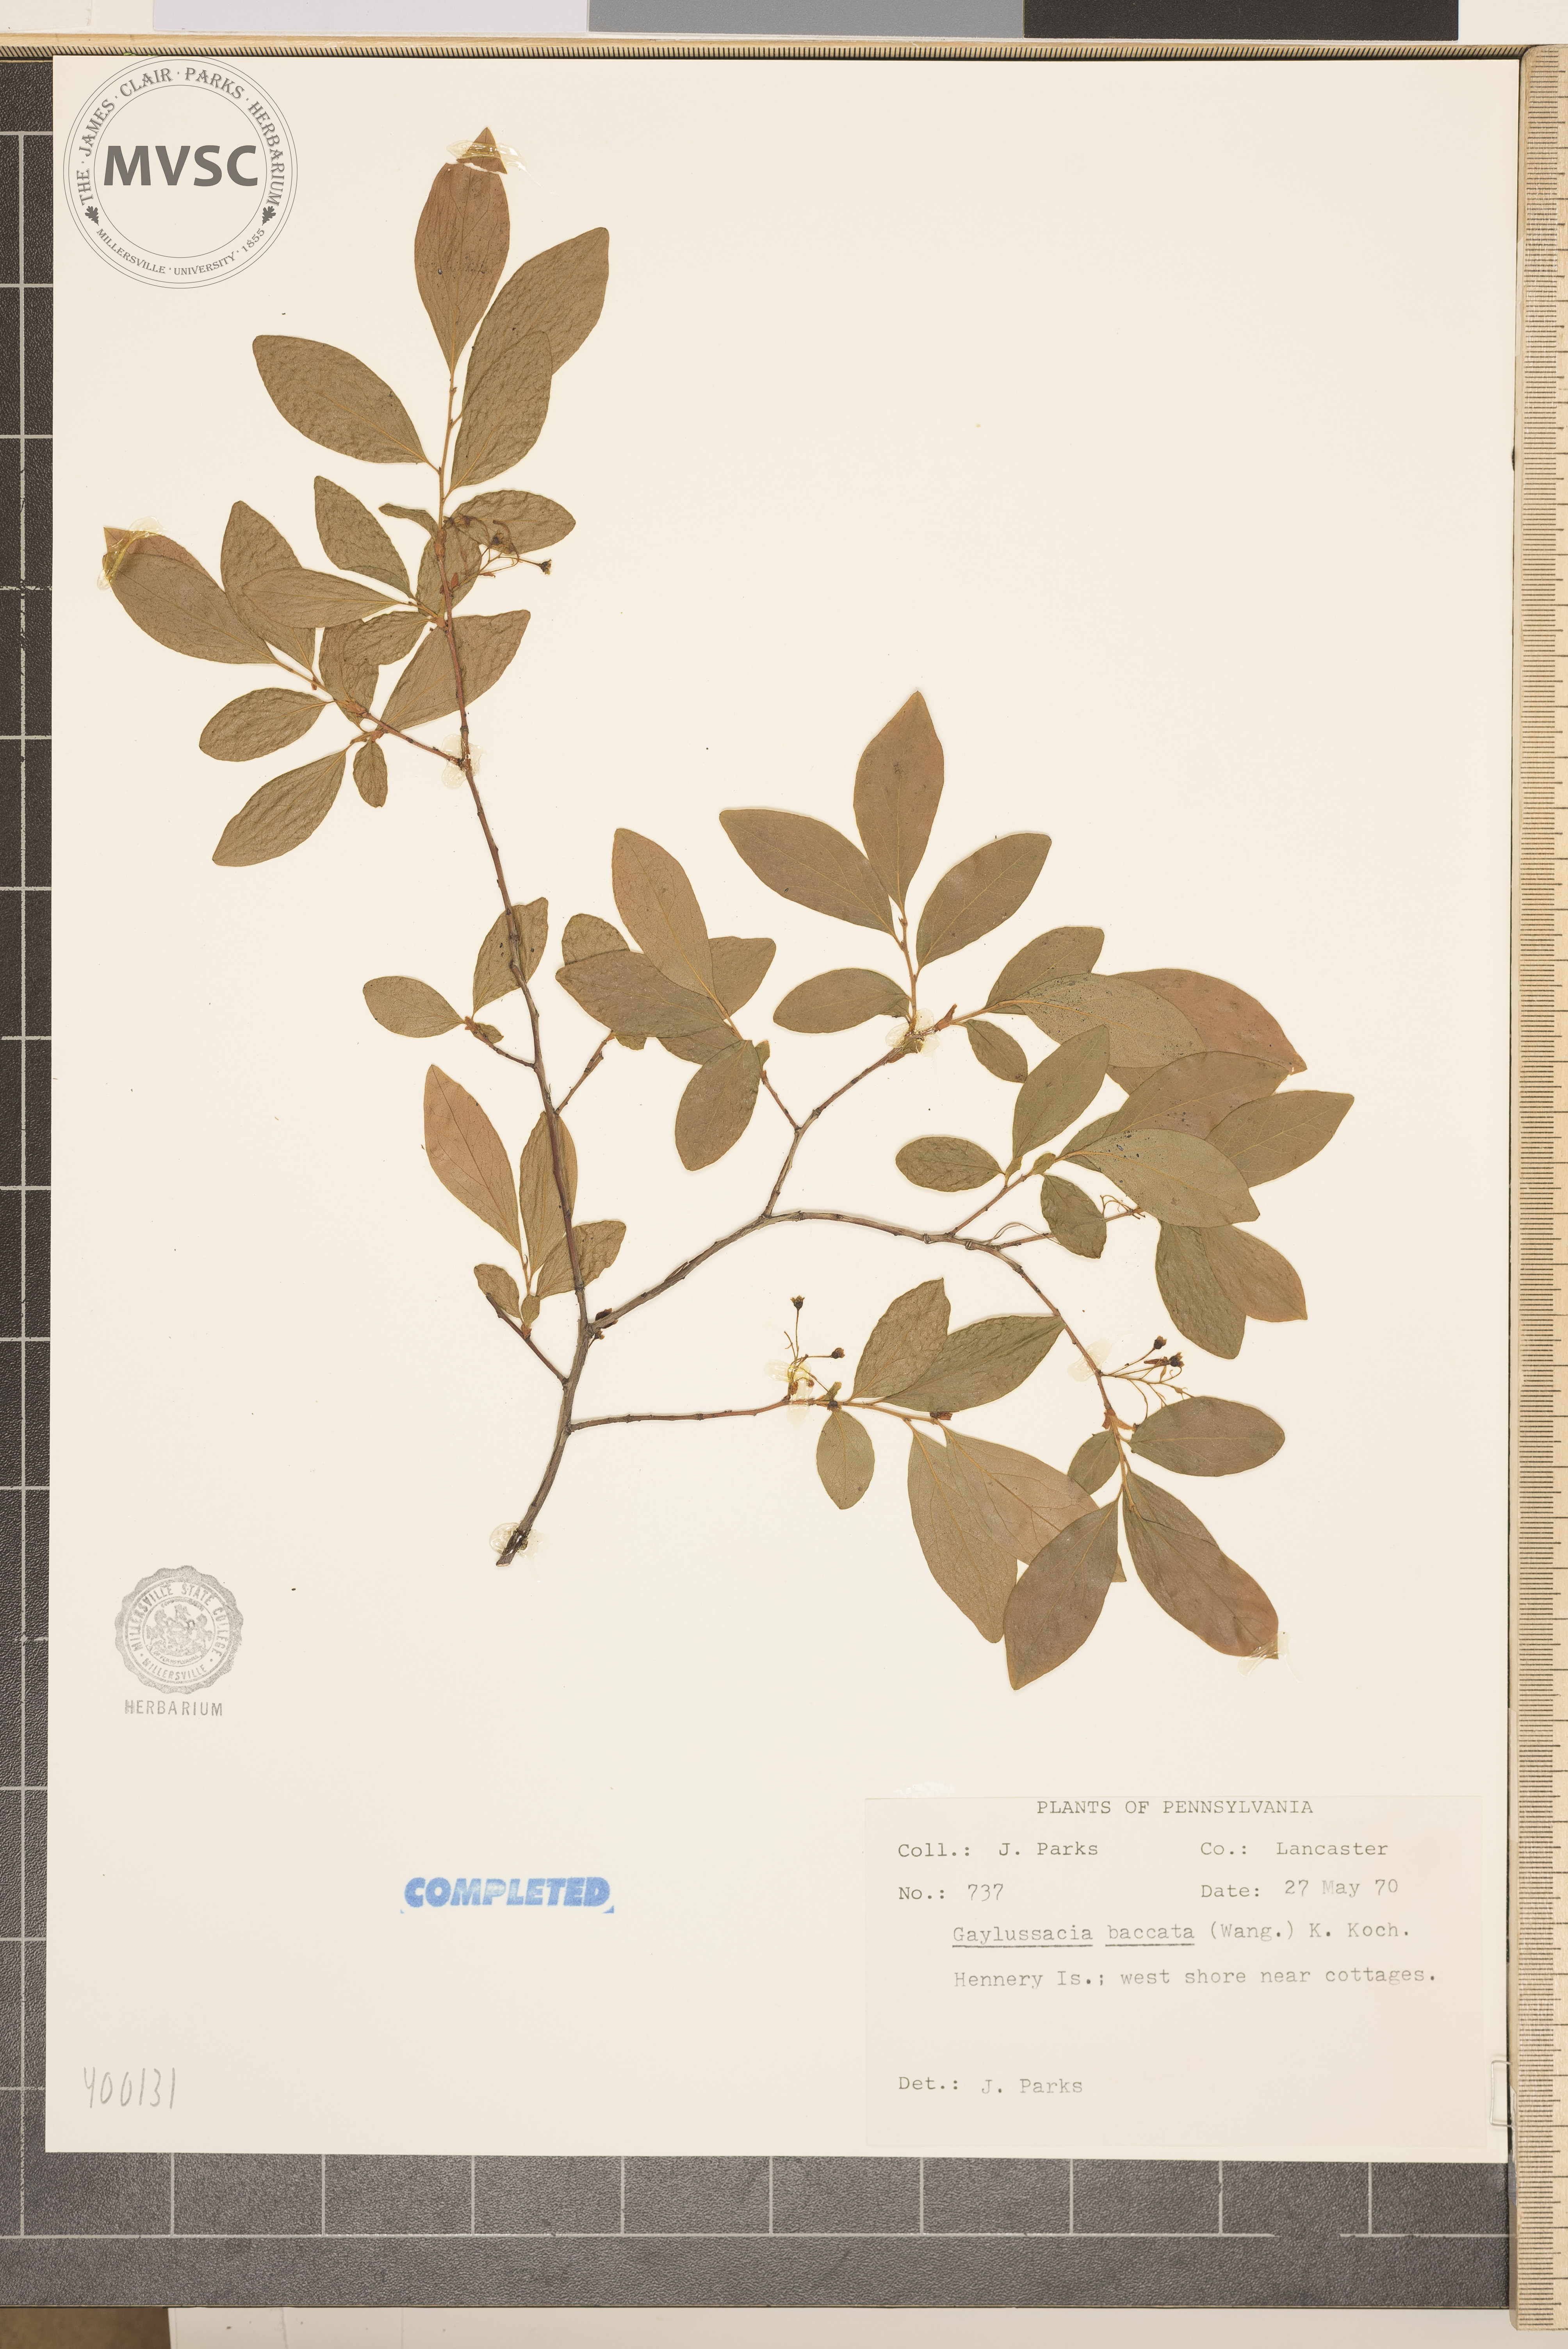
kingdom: Plantae
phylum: Tracheophyta
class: Magnoliopsida
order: Ericales
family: Ericaceae
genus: Gaylussacia
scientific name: Gaylussacia baccata
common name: Black huckleberry
